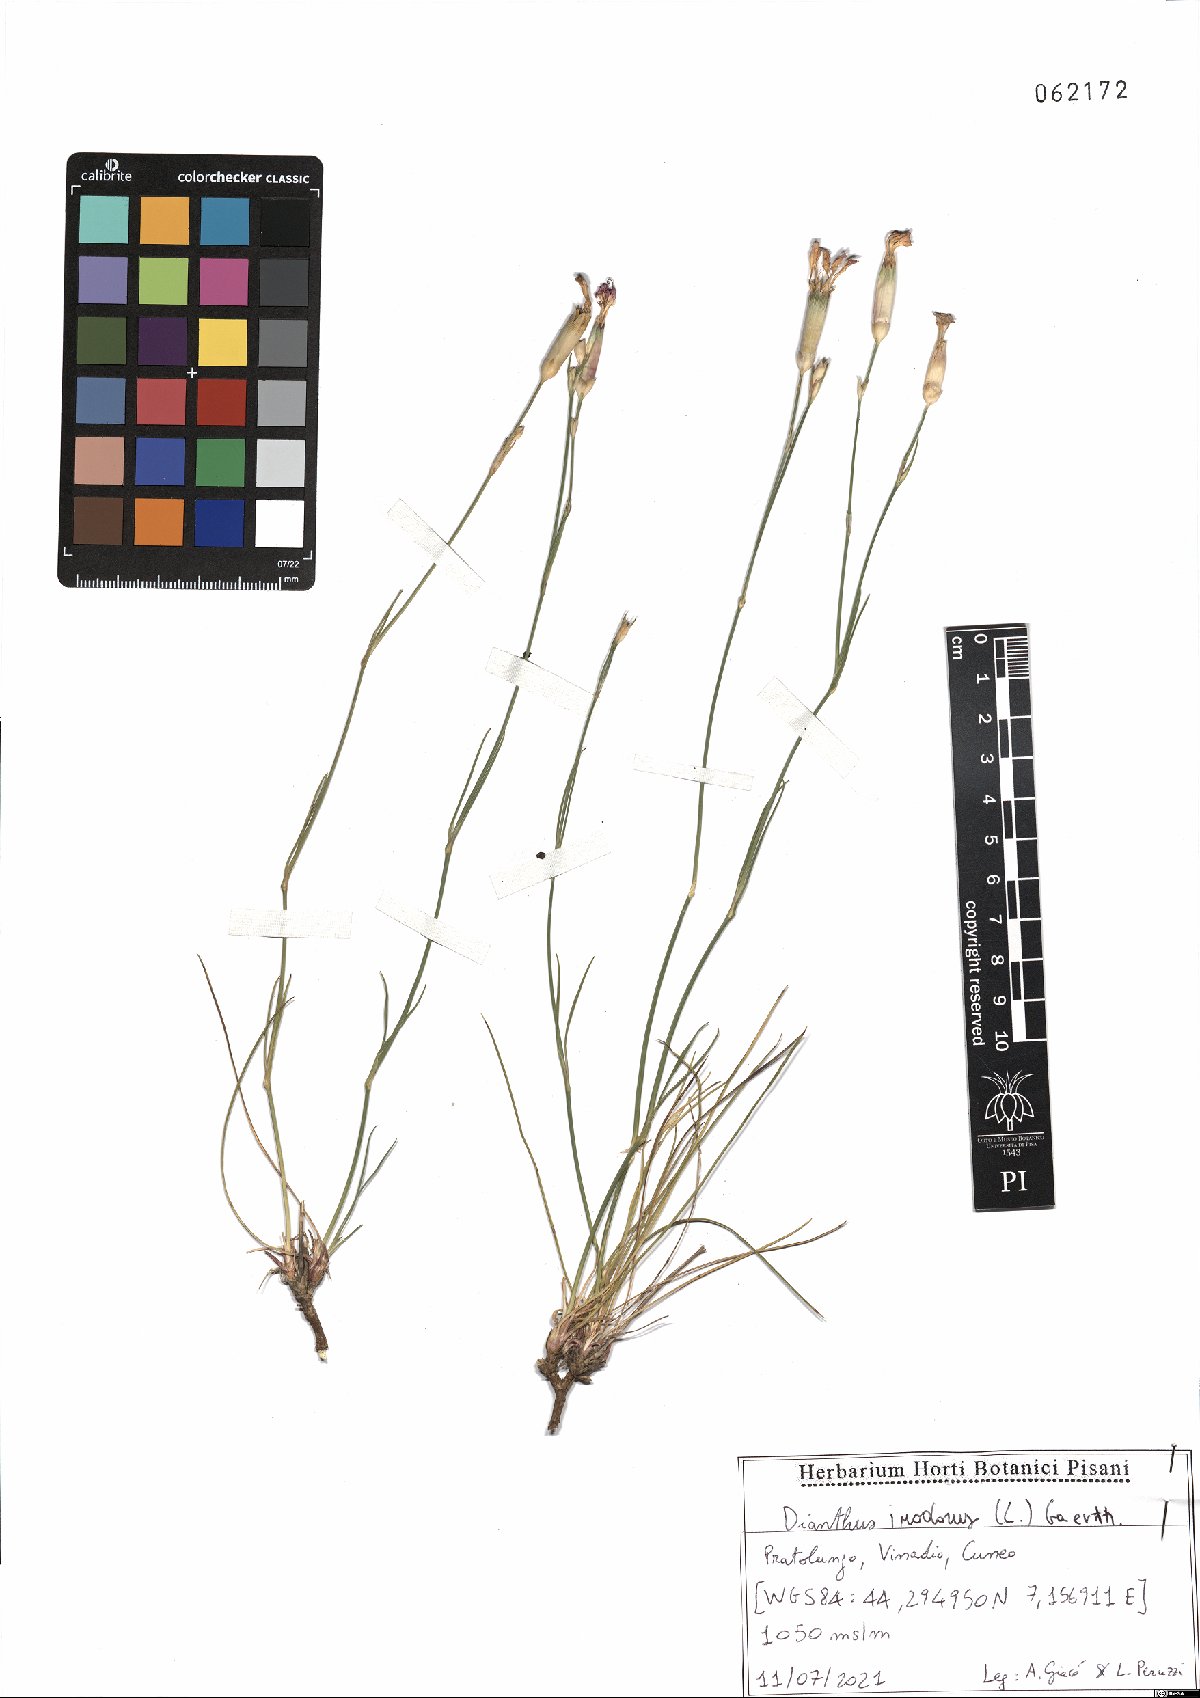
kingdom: Plantae
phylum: Tracheophyta
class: Magnoliopsida
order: Caryophyllales
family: Caryophyllaceae
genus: Dianthus
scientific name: Dianthus sylvestris
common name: Wood pink
